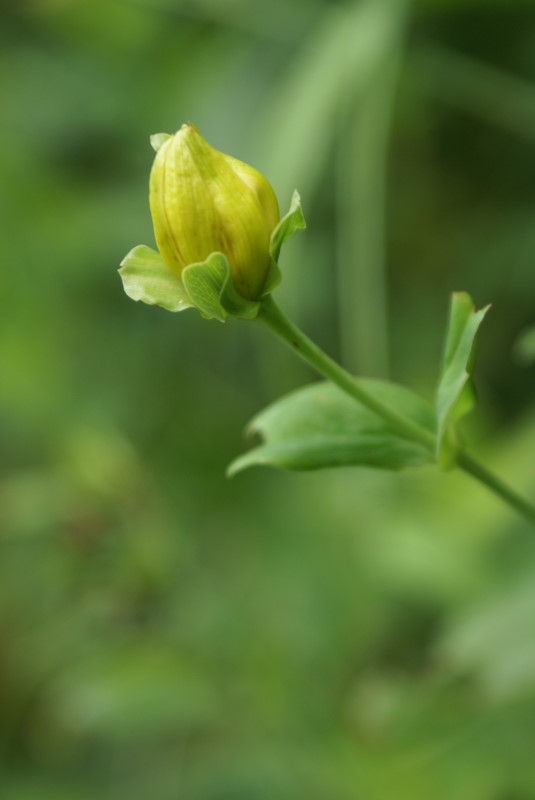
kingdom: Plantae
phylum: Tracheophyta
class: Magnoliopsida
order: Malpighiales
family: Hypericaceae
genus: Hypericum
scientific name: Hypericum
